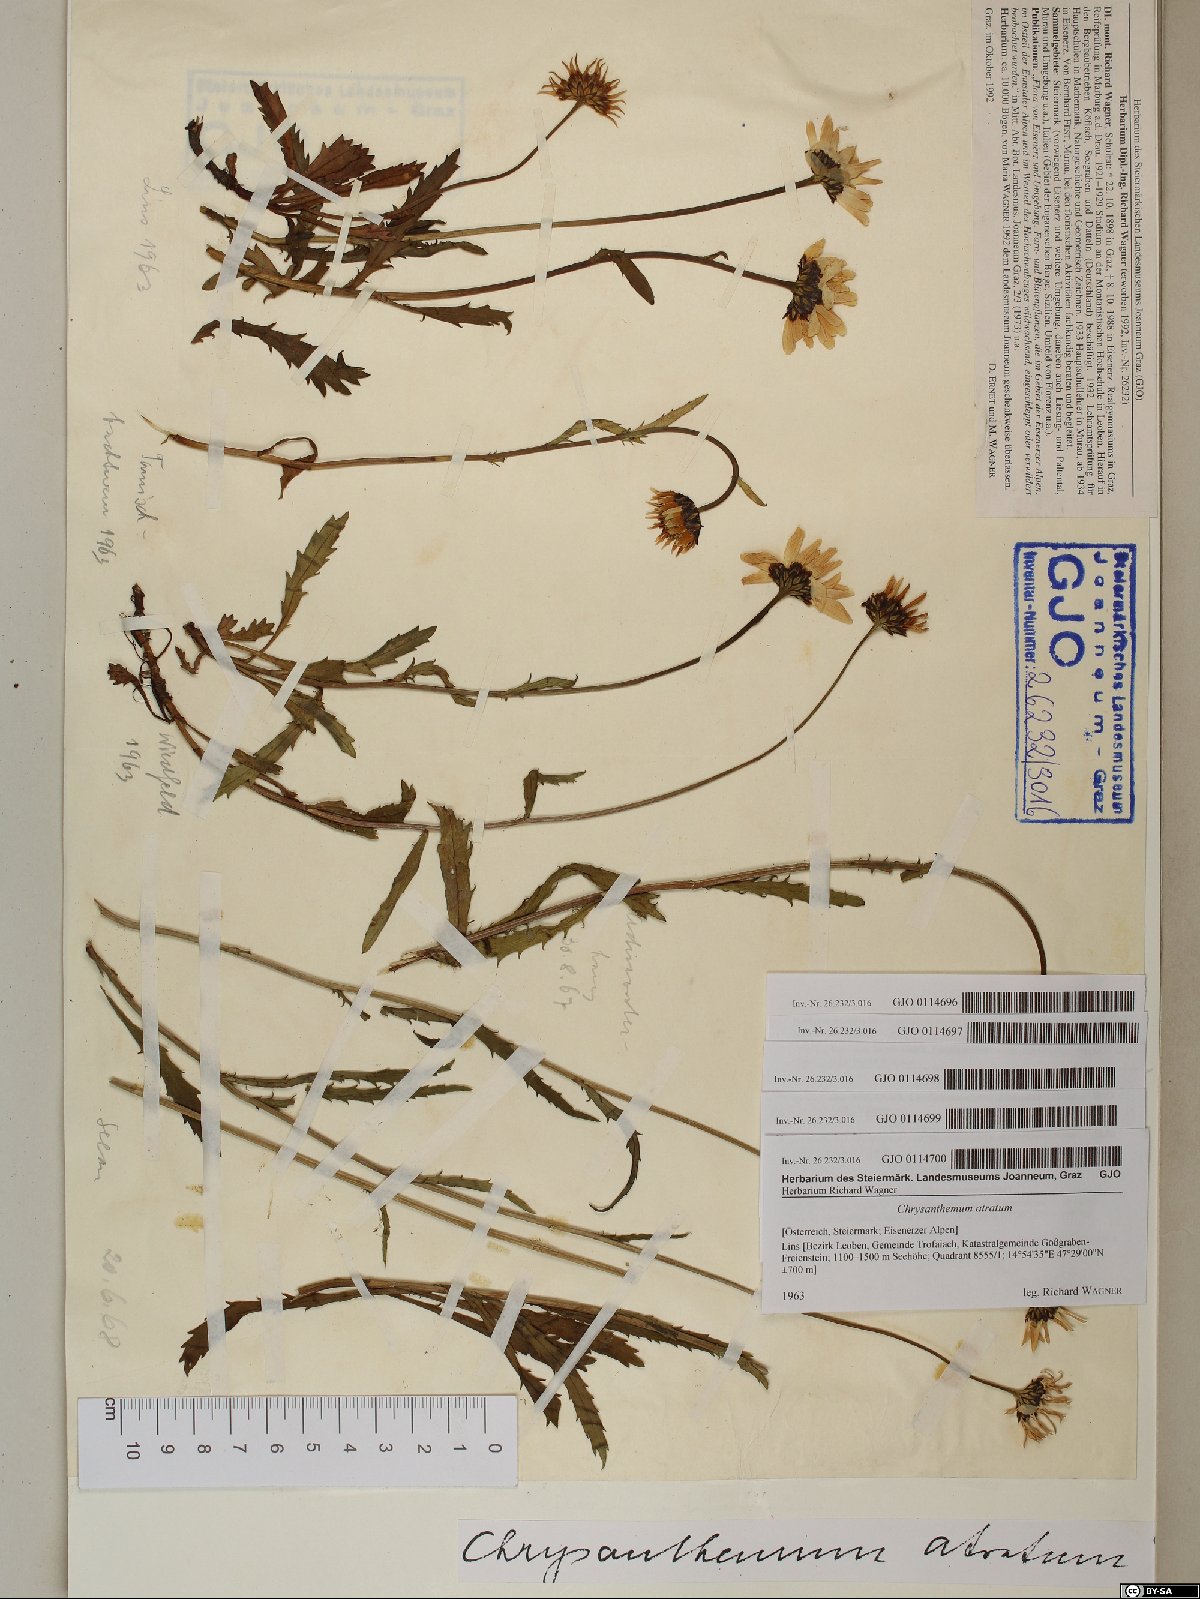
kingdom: Plantae
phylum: Tracheophyta
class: Magnoliopsida
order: Asterales
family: Asteraceae
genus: Leucanthemum
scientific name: Leucanthemum atratum
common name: Saw-leaved moon-daisy
